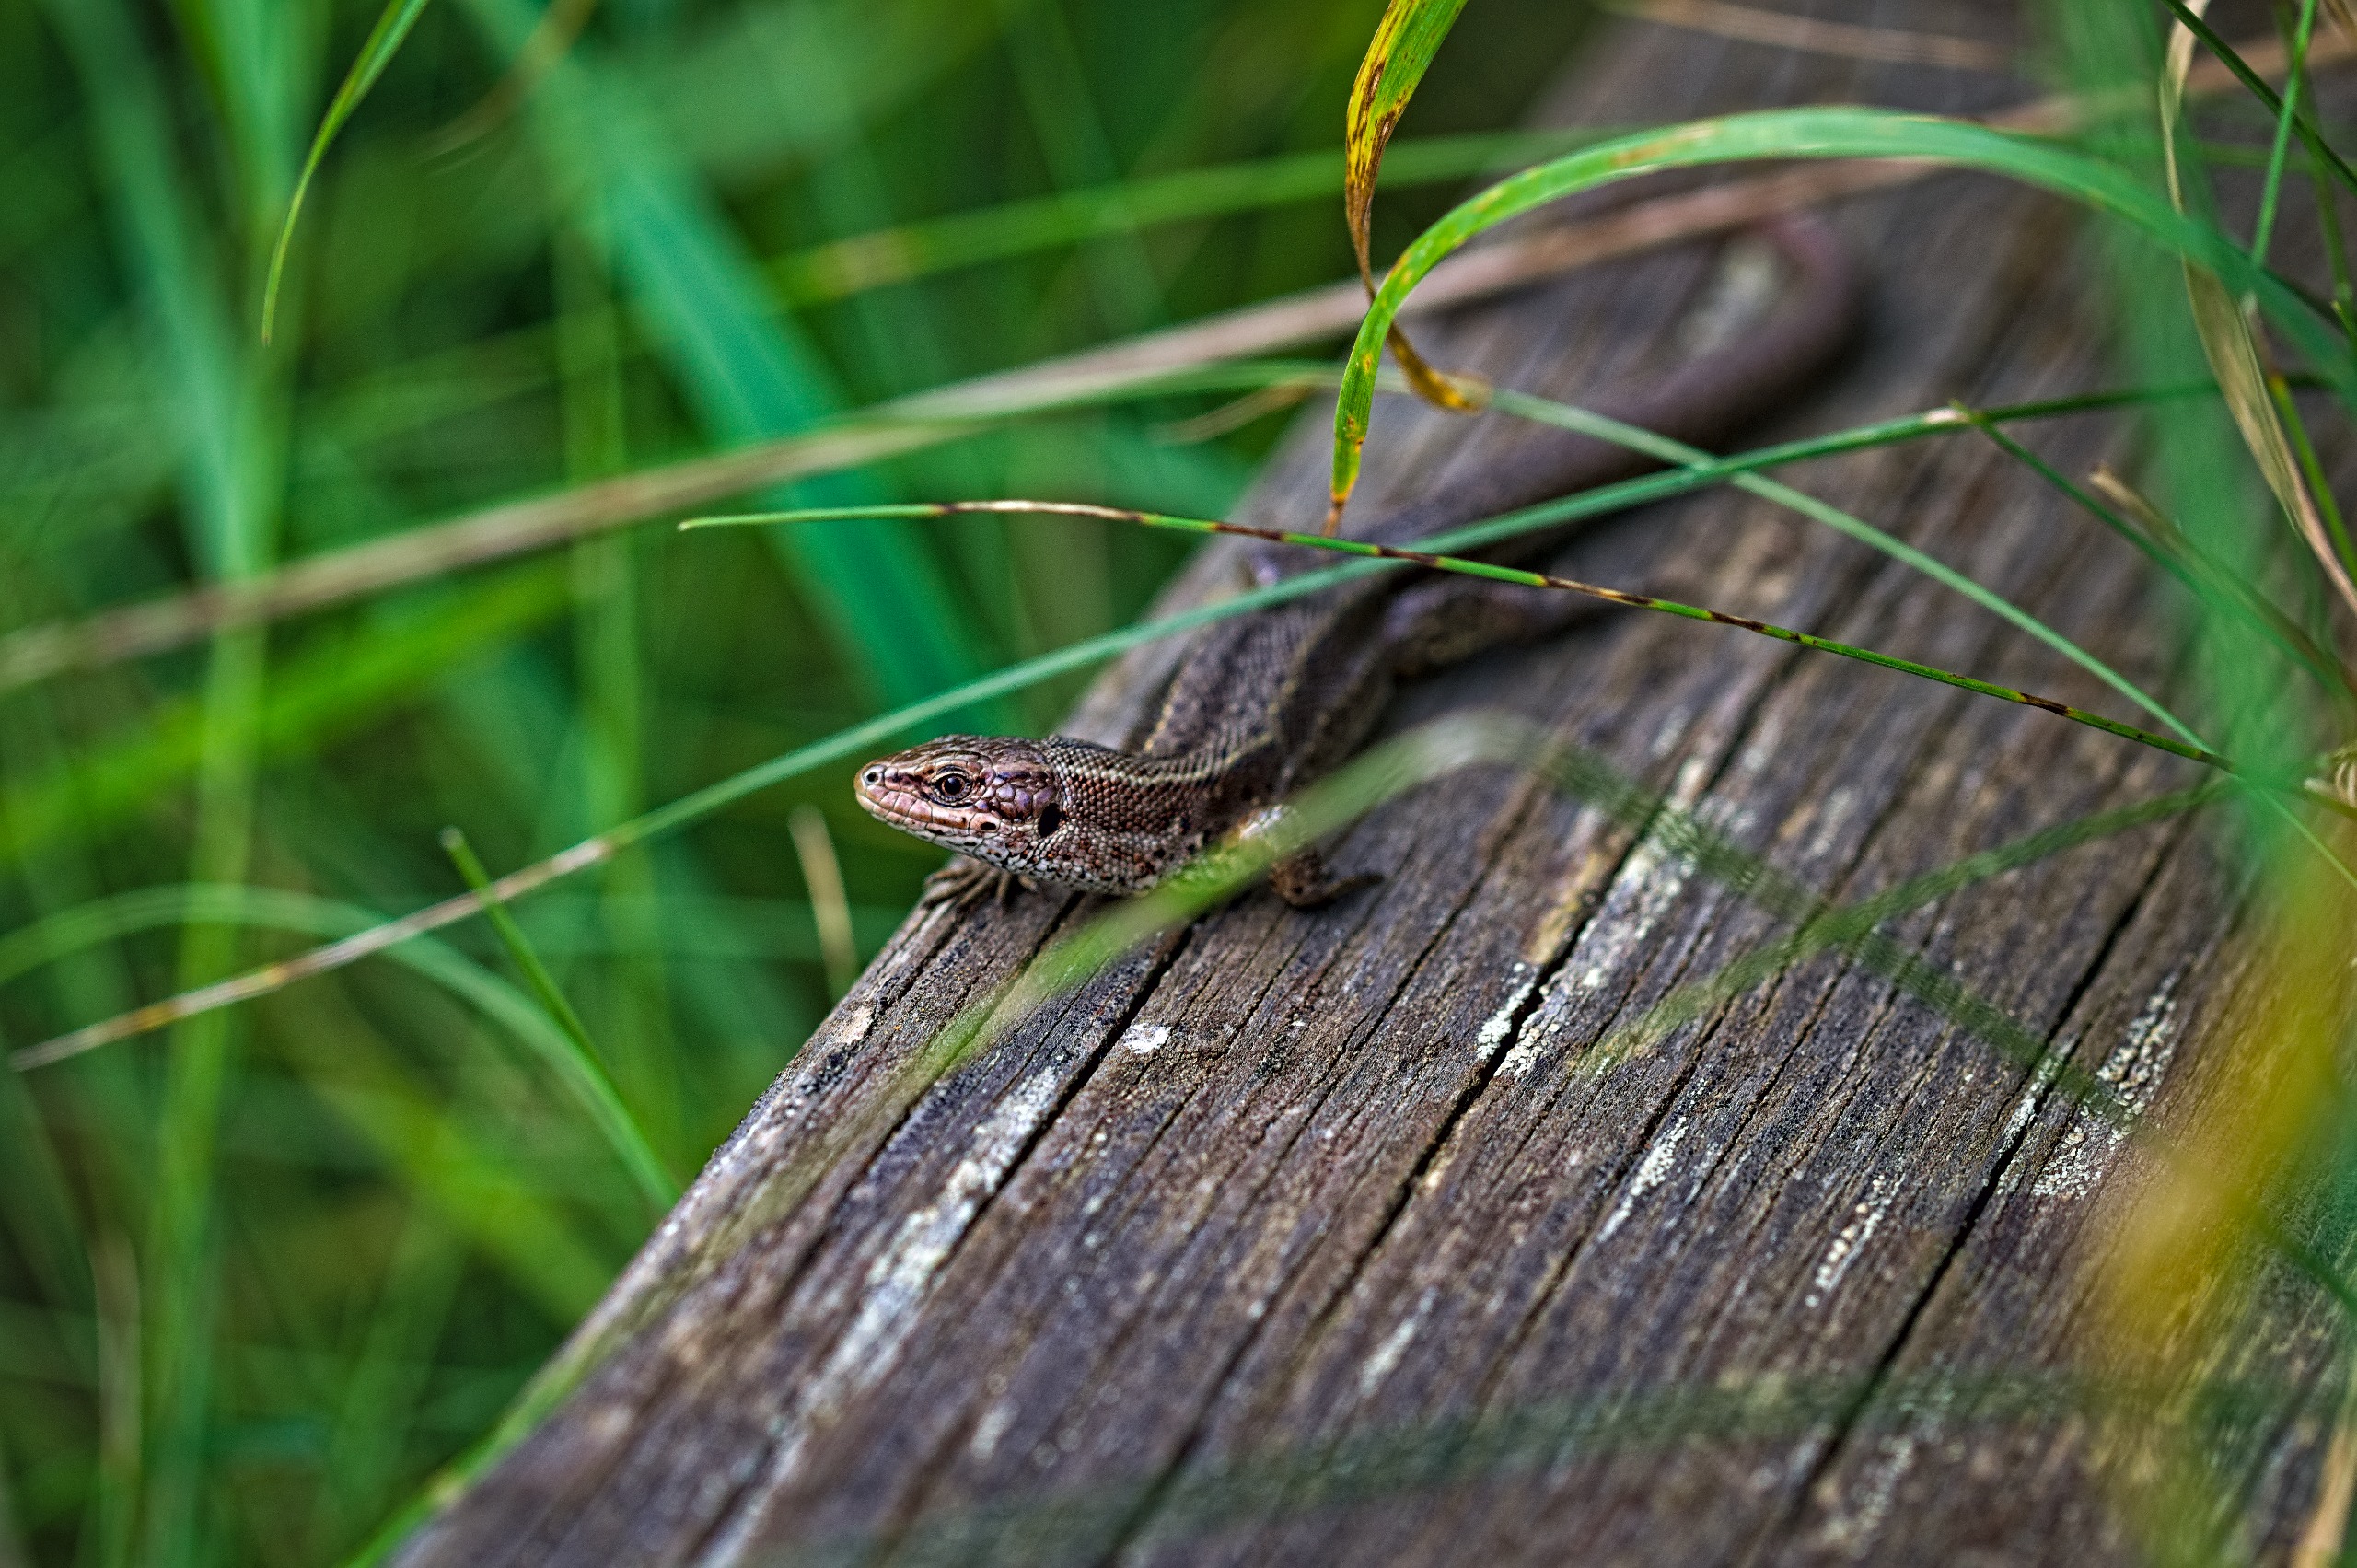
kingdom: Animalia
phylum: Chordata
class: Squamata
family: Lacertidae
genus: Zootoca
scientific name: Zootoca vivipara
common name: Skovfirben
